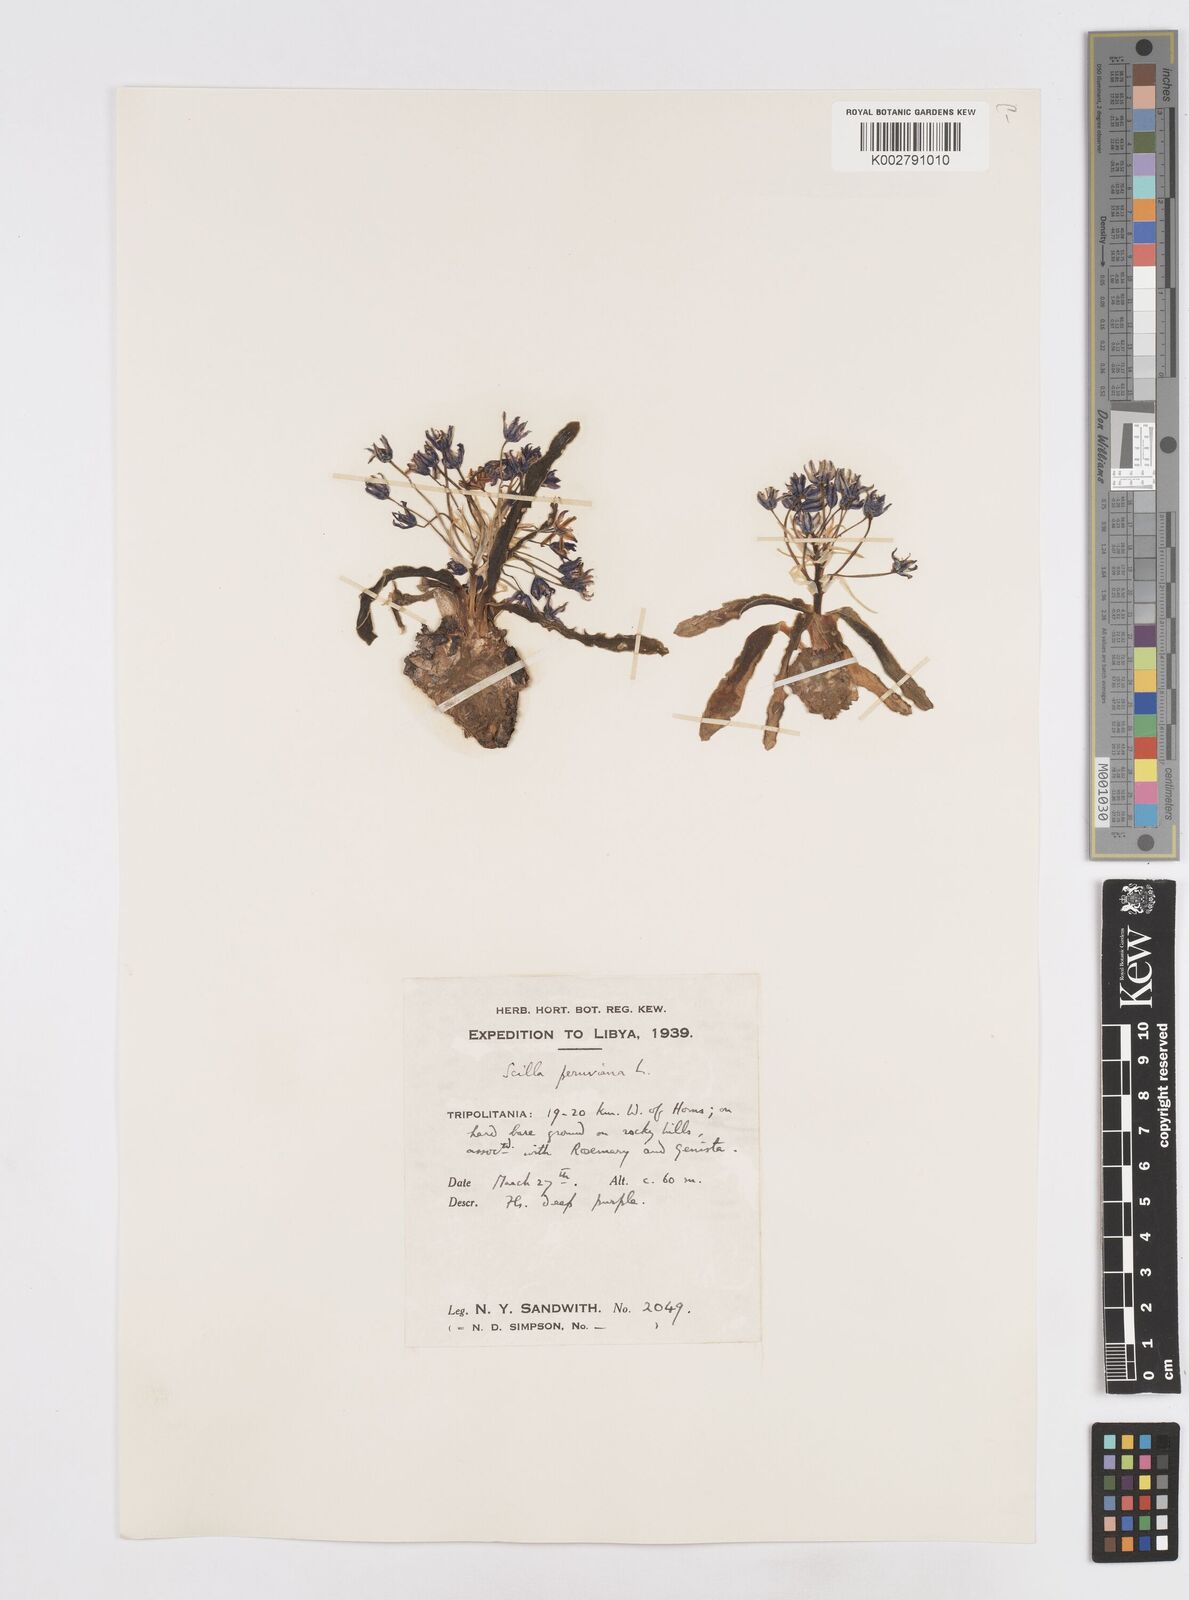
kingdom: Plantae
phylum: Tracheophyta
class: Liliopsida
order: Asparagales
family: Asparagaceae
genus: Scilla
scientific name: Scilla peruviana
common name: Portuguese squill
